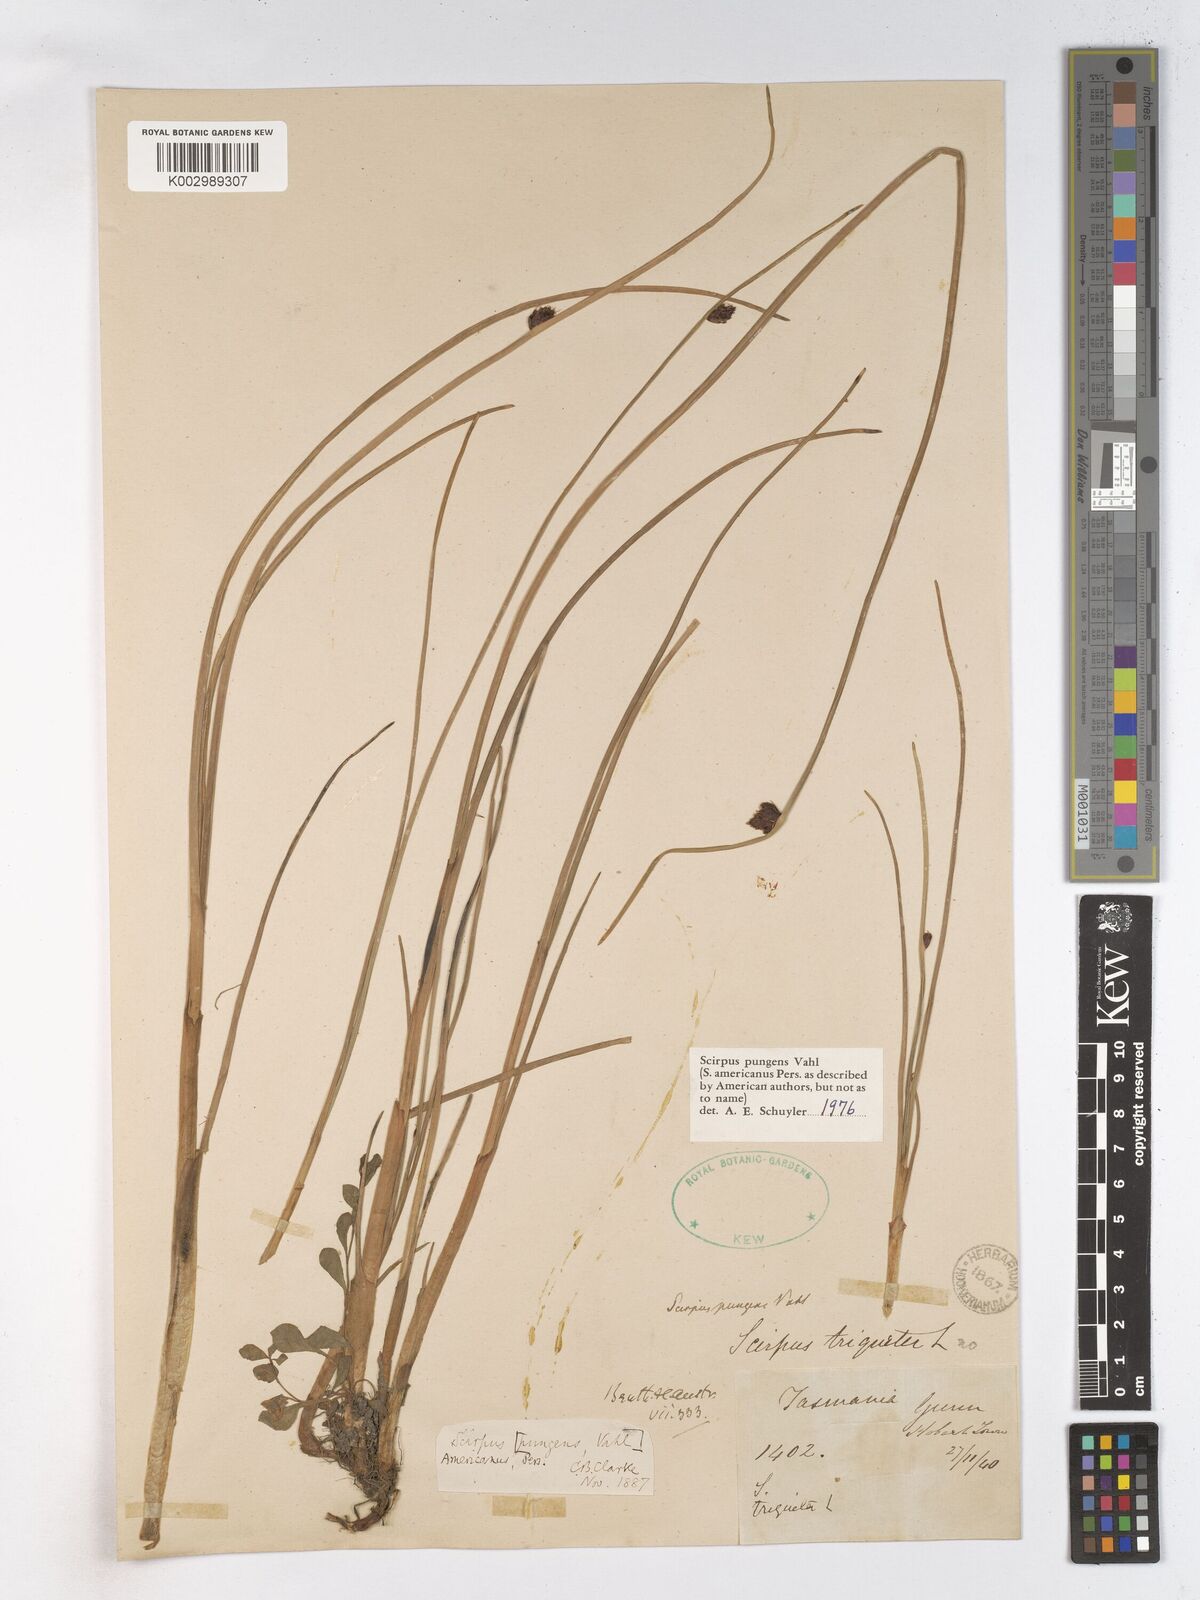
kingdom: Plantae
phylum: Tracheophyta
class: Liliopsida
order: Poales
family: Cyperaceae
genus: Schoenoplectus
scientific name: Schoenoplectus pungens
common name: Sharp club-rush
